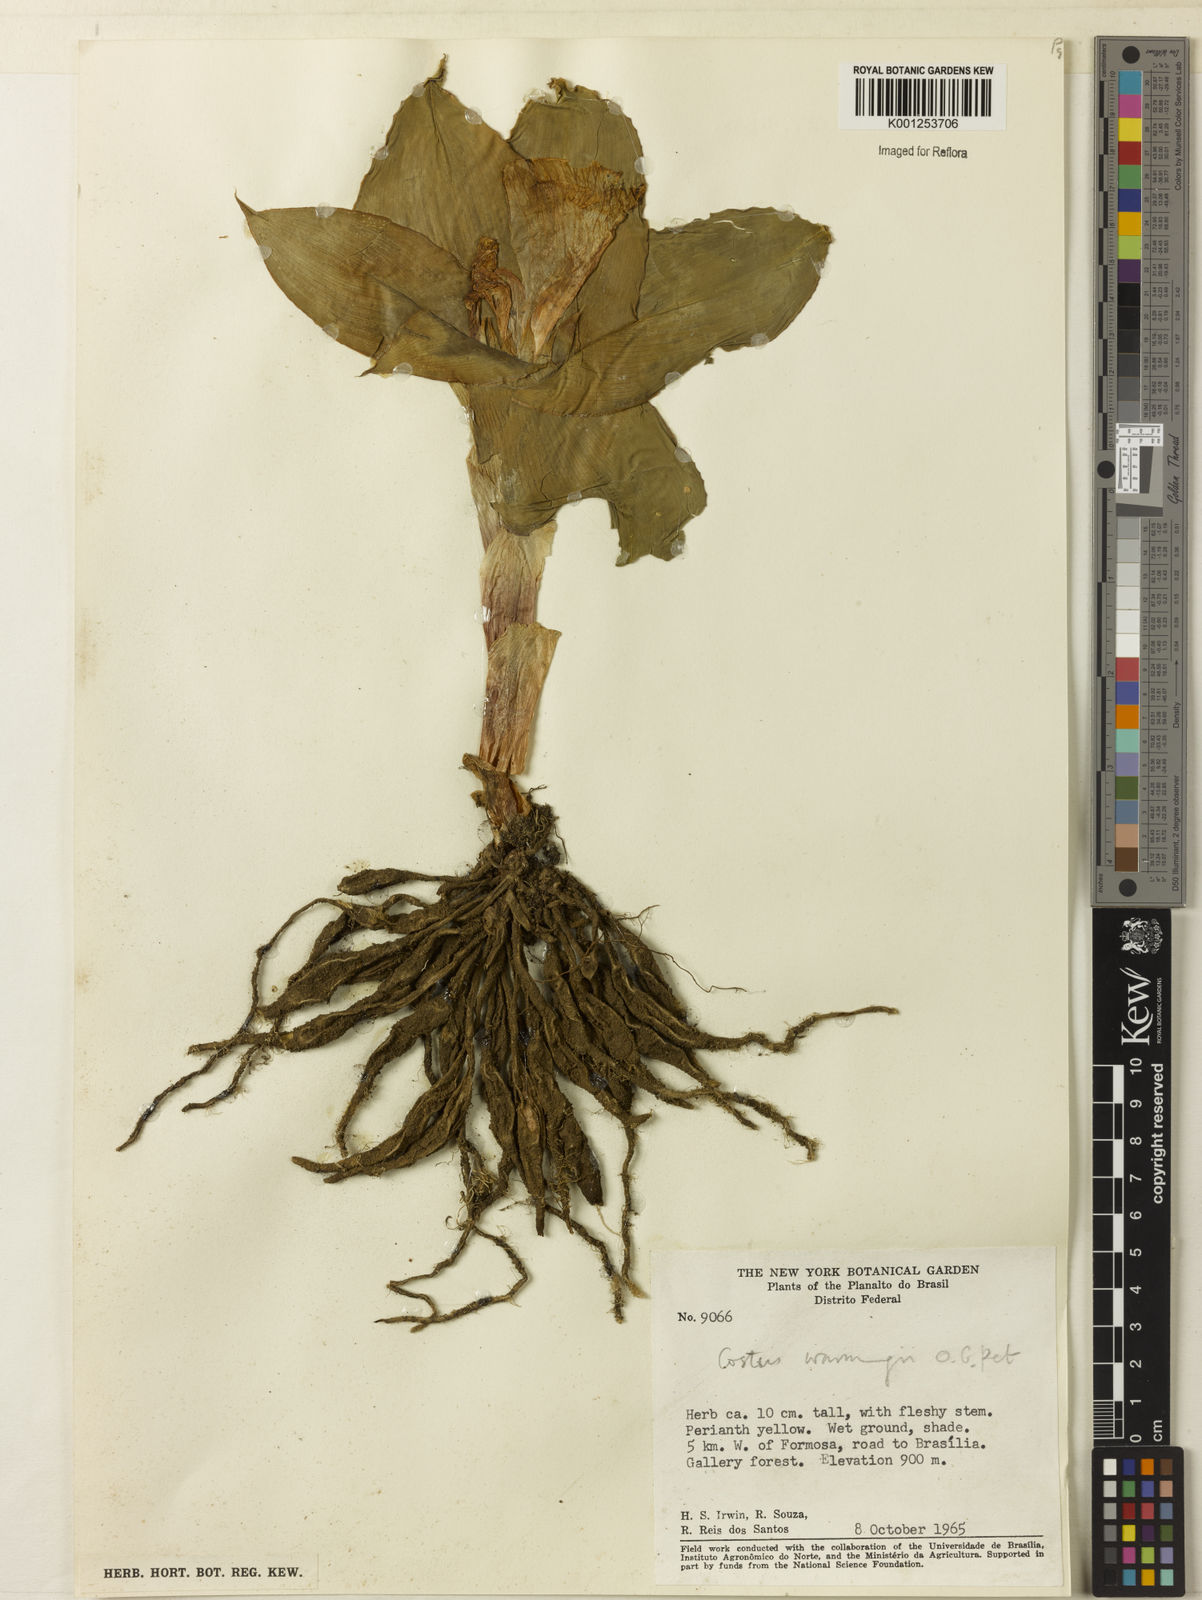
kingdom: Plantae
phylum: Tracheophyta
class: Liliopsida
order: Zingiberales
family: Costaceae
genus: Chamaecostus
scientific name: Chamaecostus subsessilis
